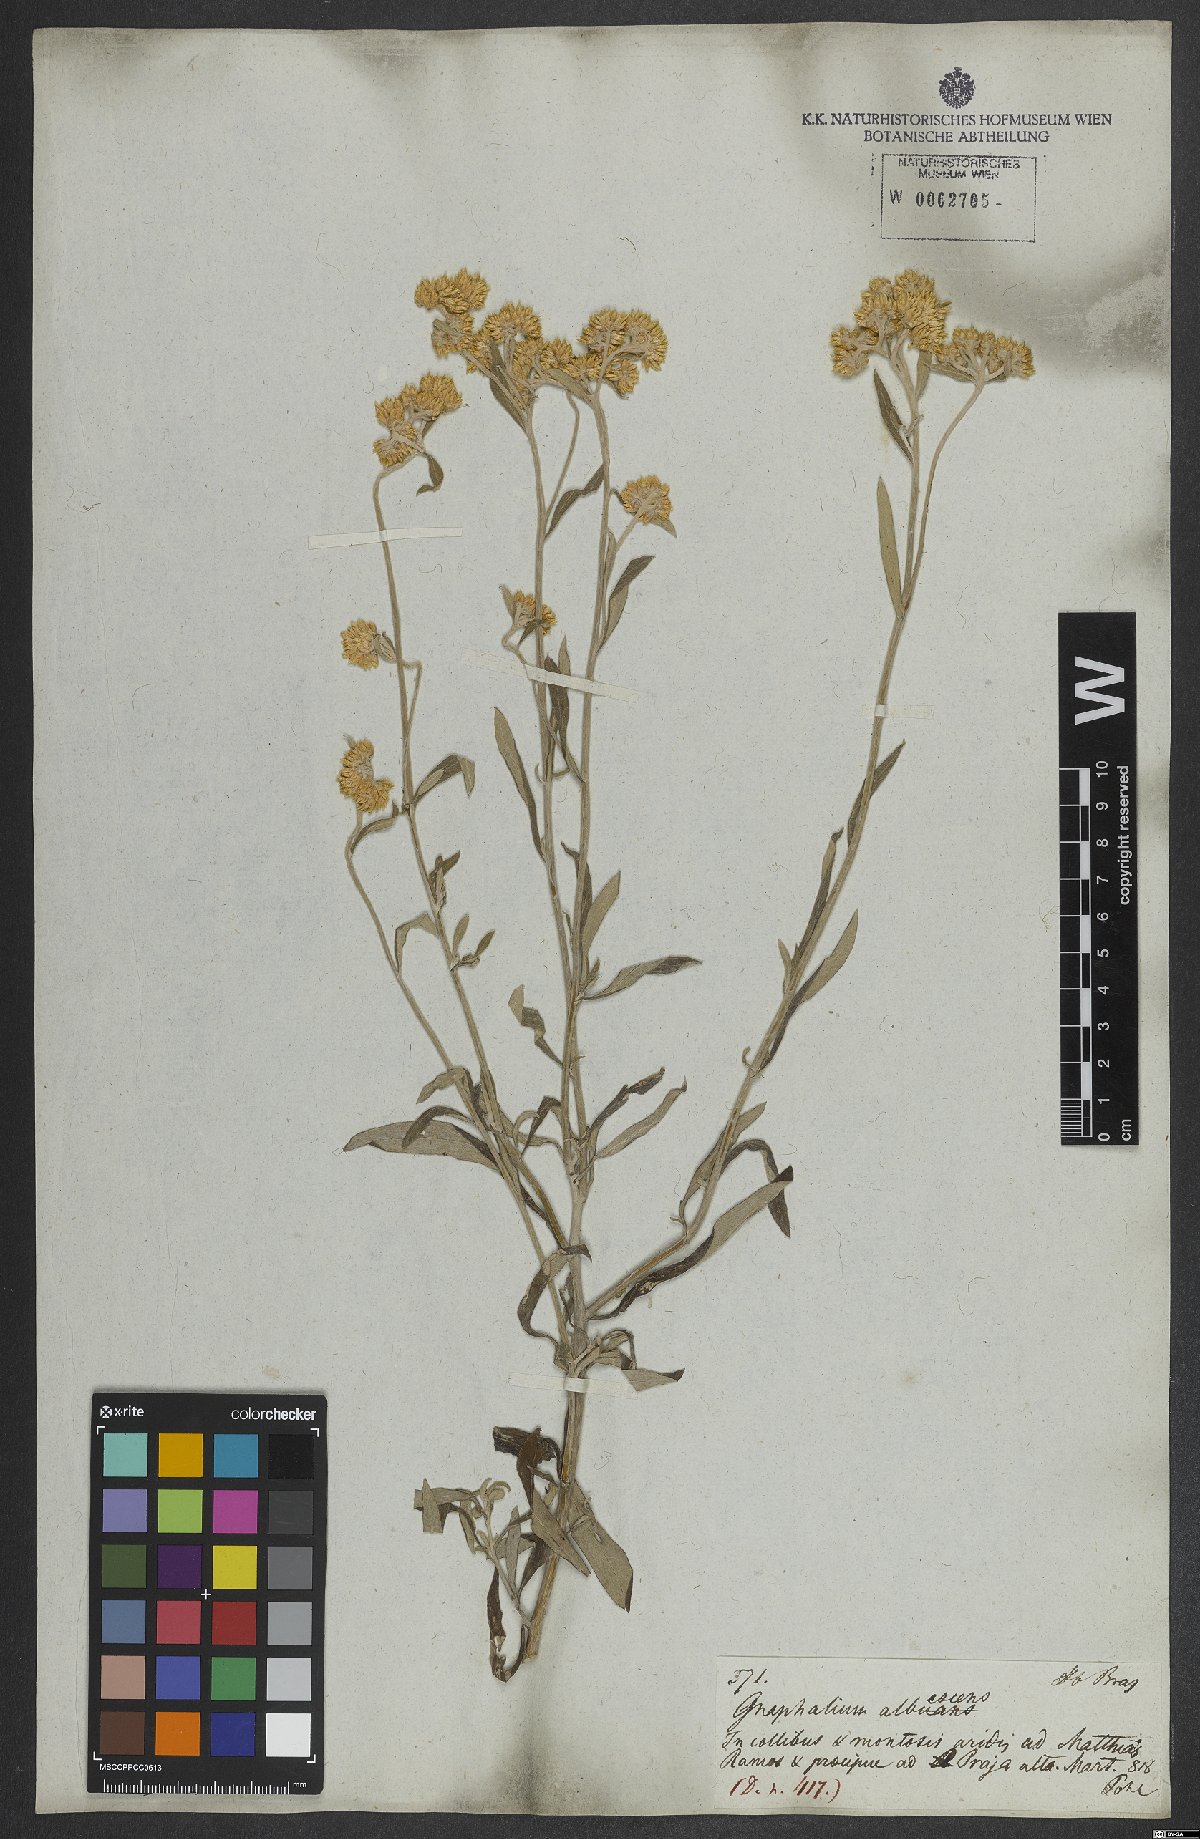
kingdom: Plantae
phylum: Tracheophyta
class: Magnoliopsida
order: Asterales
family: Asteraceae
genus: Achyrocline
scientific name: Achyrocline flaccida
